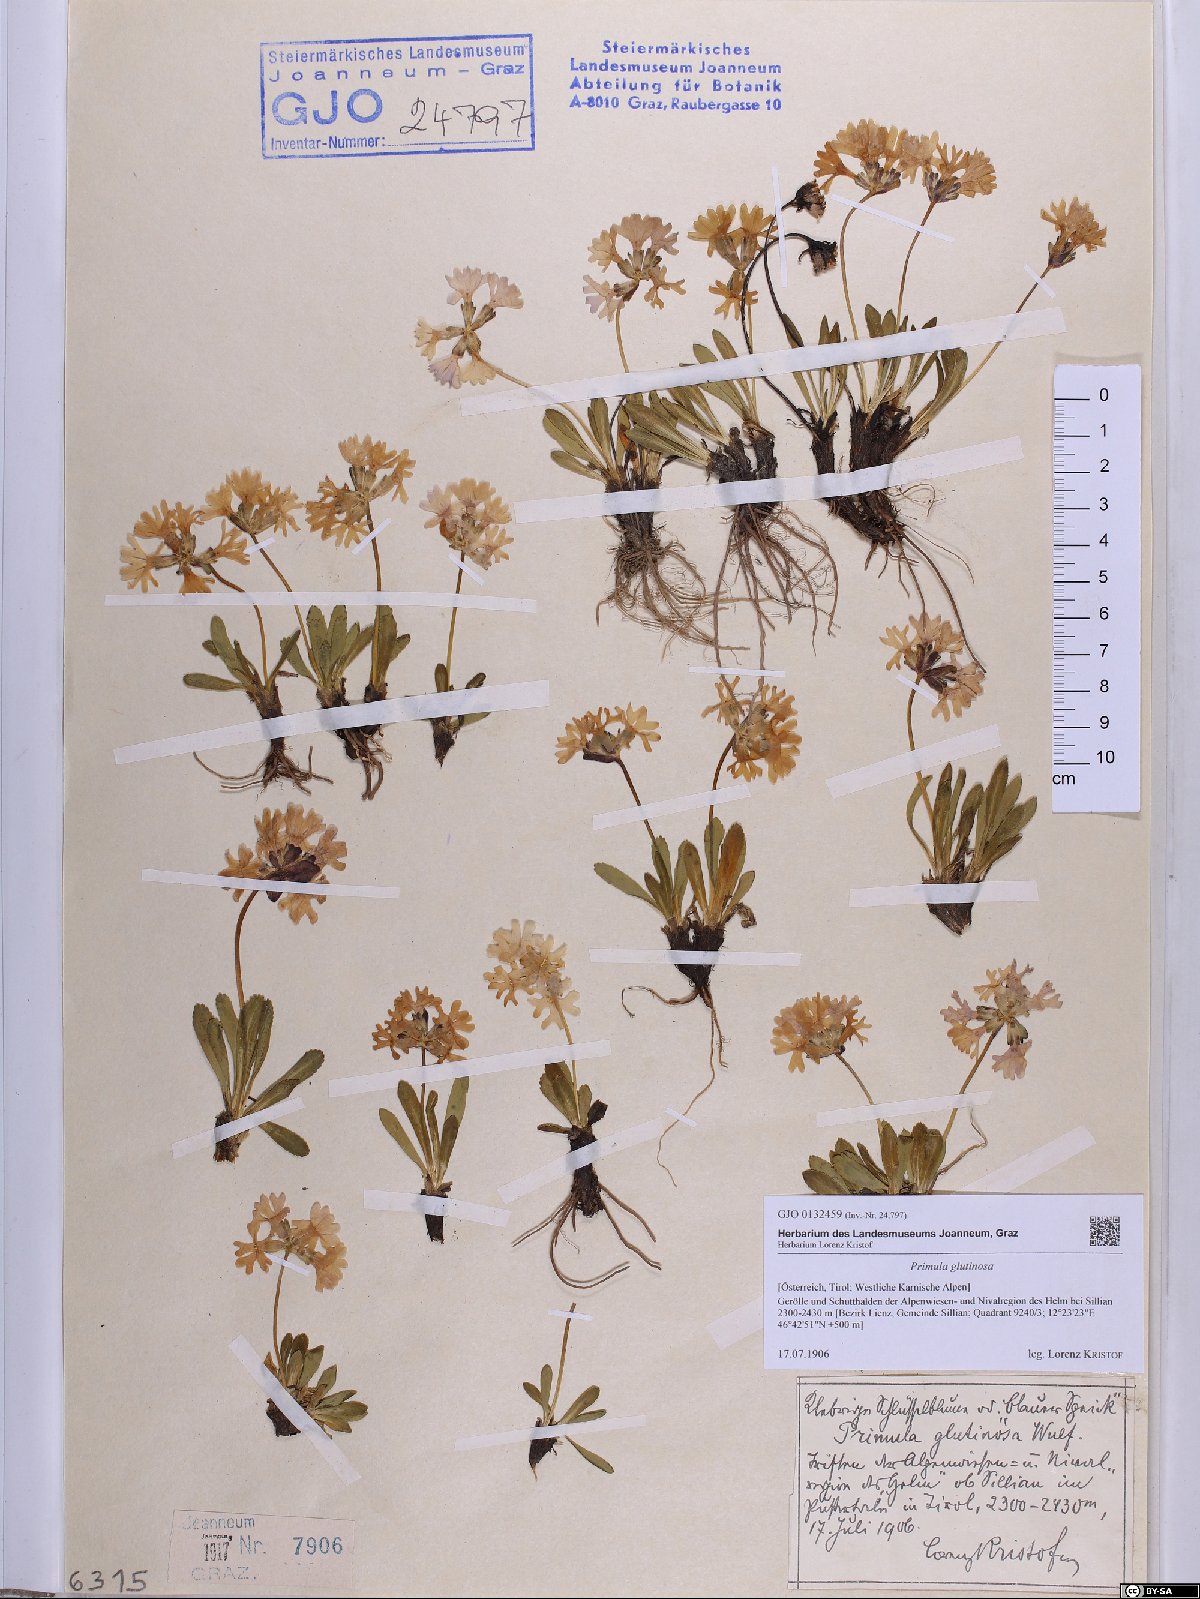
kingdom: Plantae
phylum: Tracheophyta
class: Magnoliopsida
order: Ericales
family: Primulaceae
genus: Primula
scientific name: Primula glutinosa
